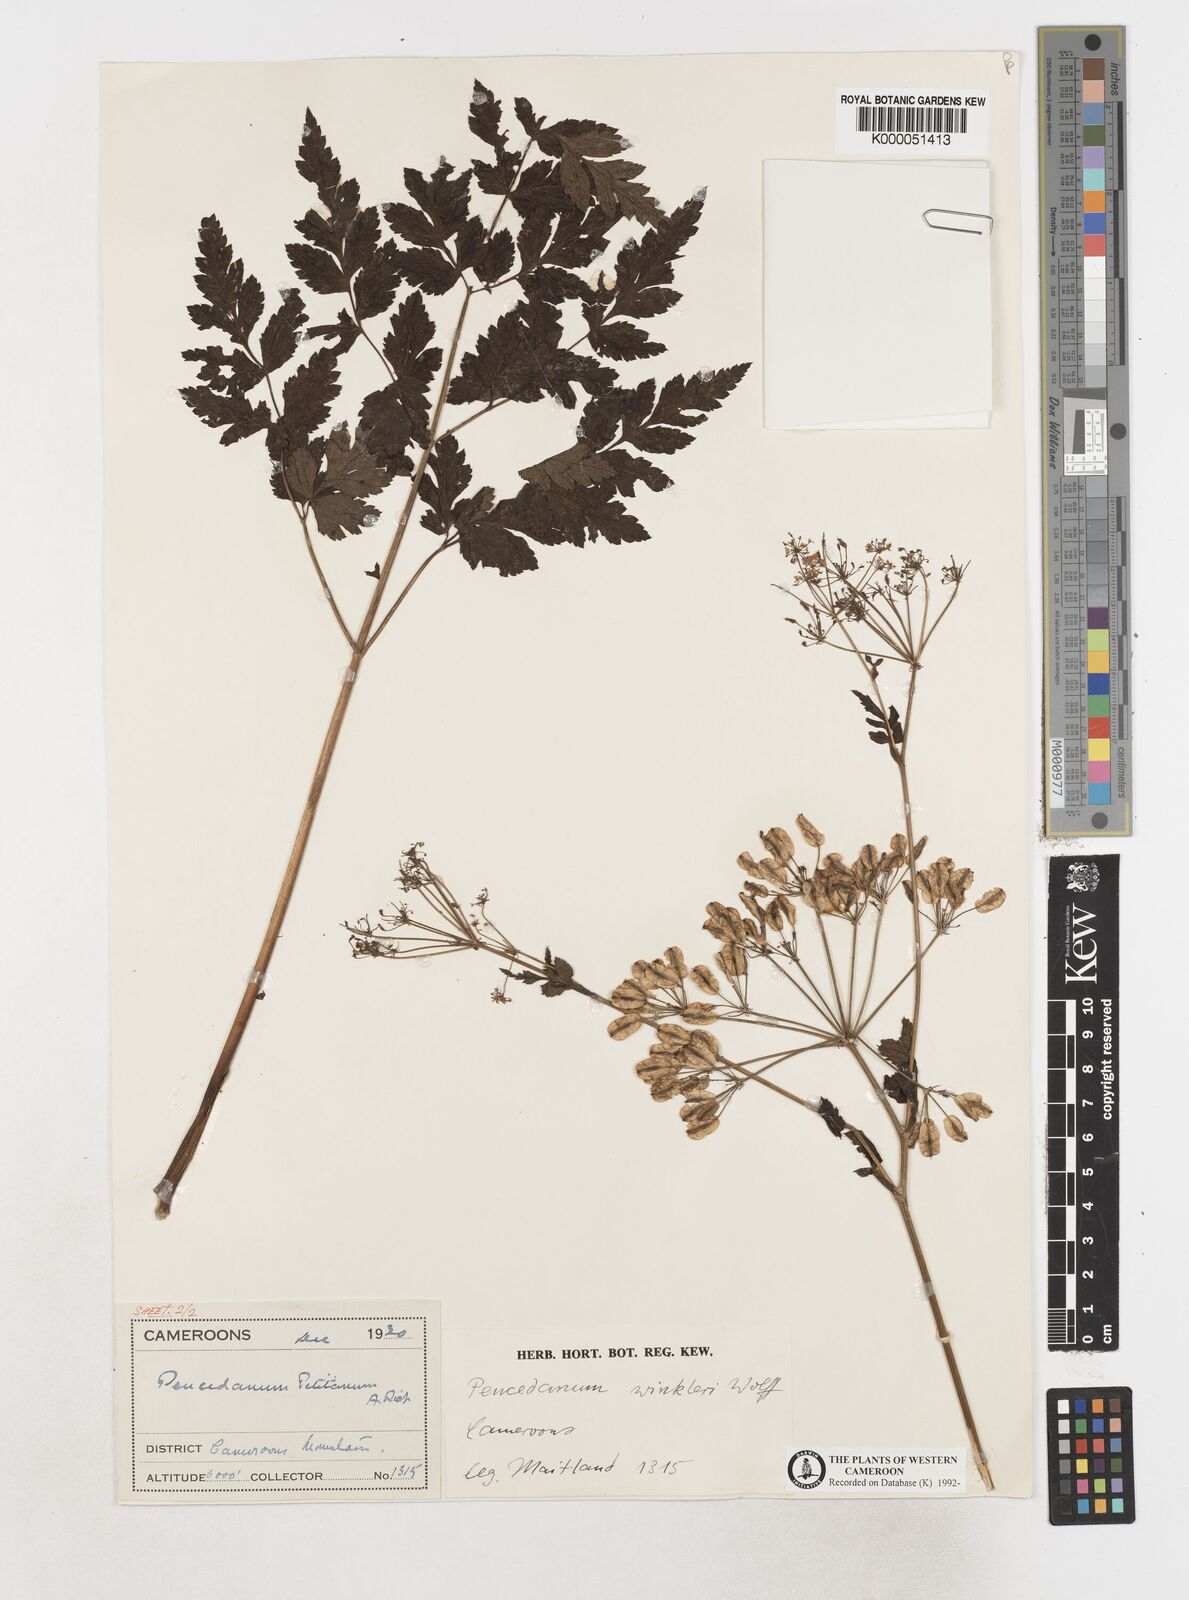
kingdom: Plantae
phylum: Tracheophyta
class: Magnoliopsida
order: Apiales
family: Apiaceae
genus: Afroligusticum
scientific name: Afroligusticum
